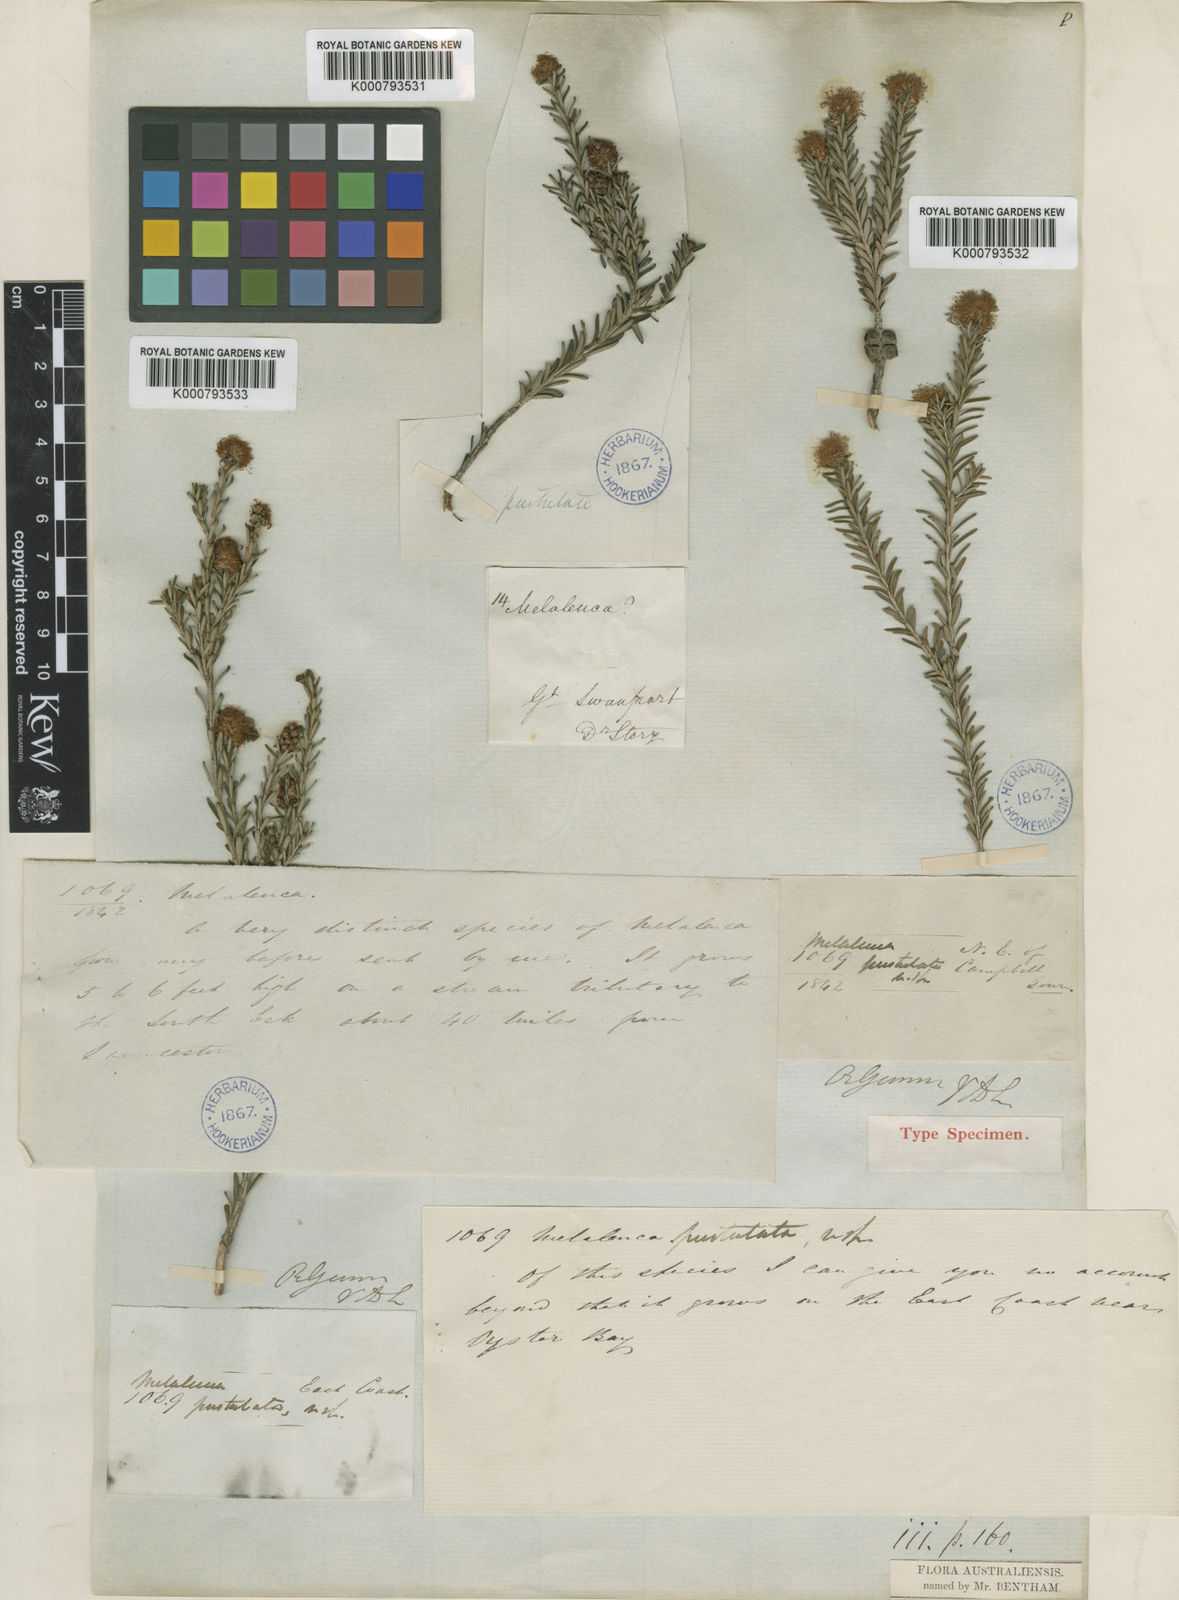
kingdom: Plantae
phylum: Tracheophyta
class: Magnoliopsida
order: Myrtales
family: Myrtaceae
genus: Melaleuca
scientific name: Melaleuca leiocarpa
